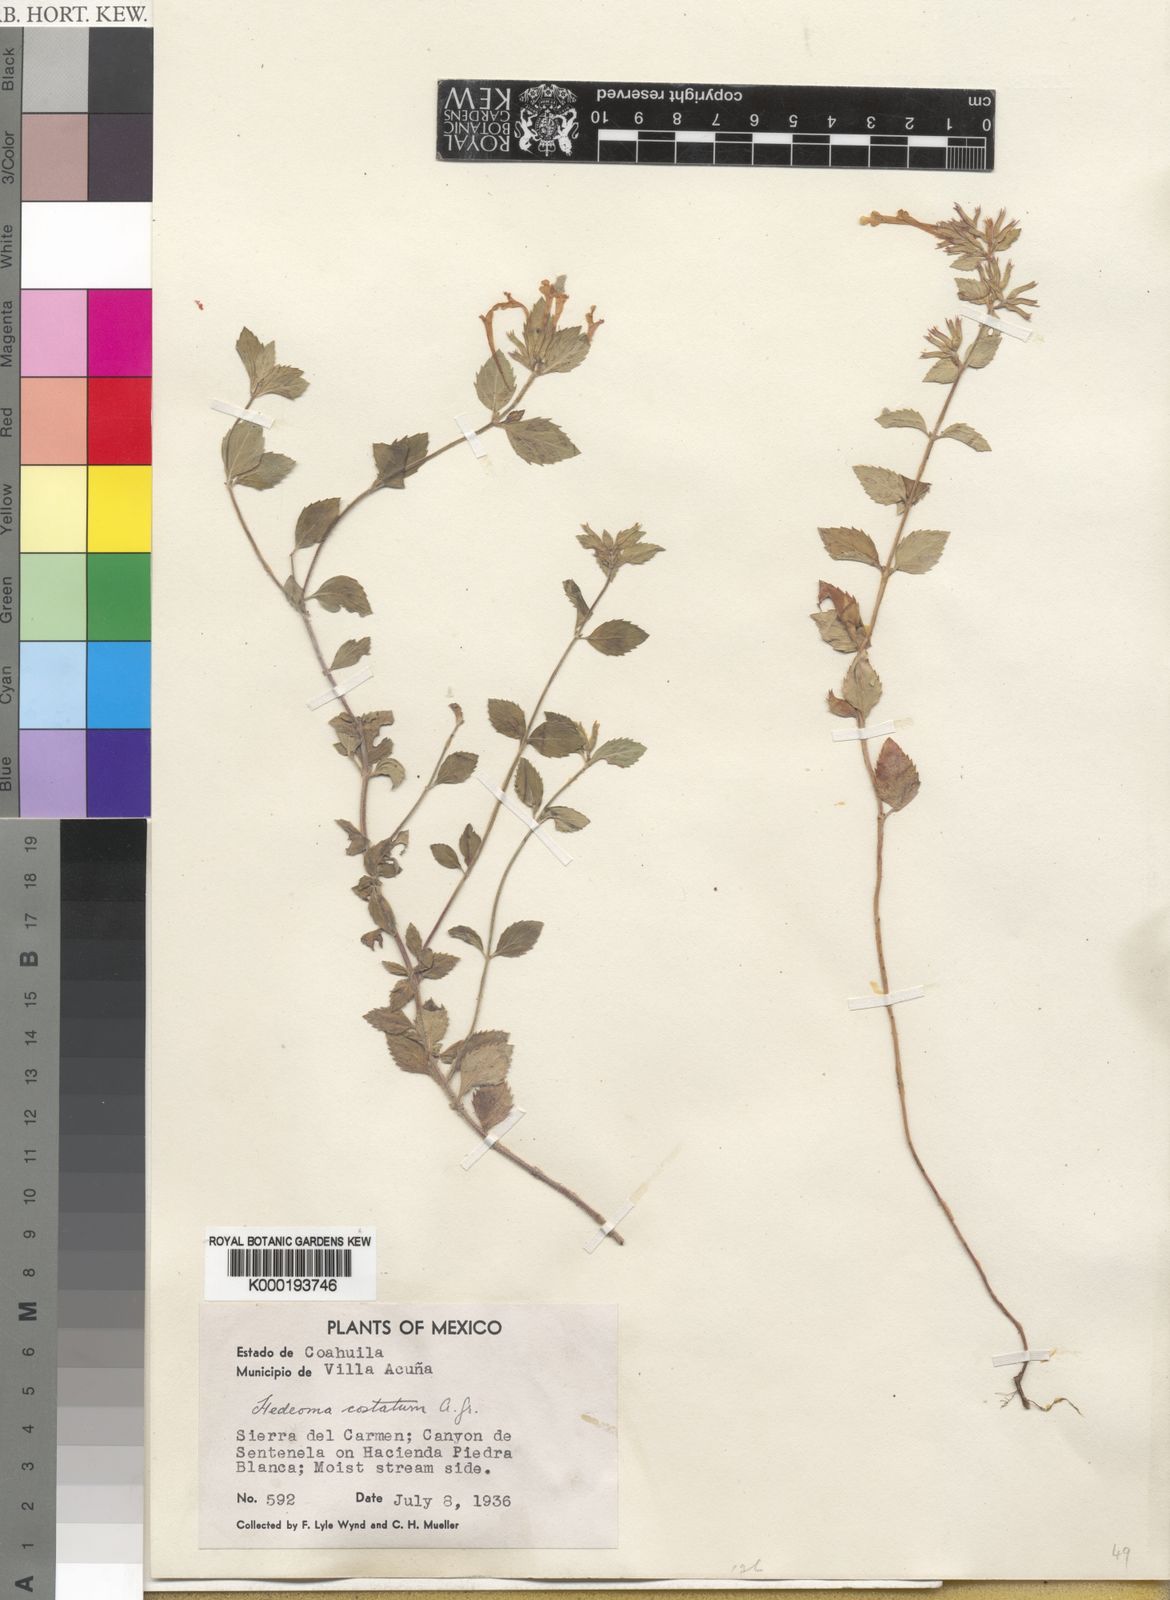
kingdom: Plantae
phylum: Tracheophyta
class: Magnoliopsida
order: Lamiales
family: Lamiaceae
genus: Hedeoma
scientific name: Hedeoma
